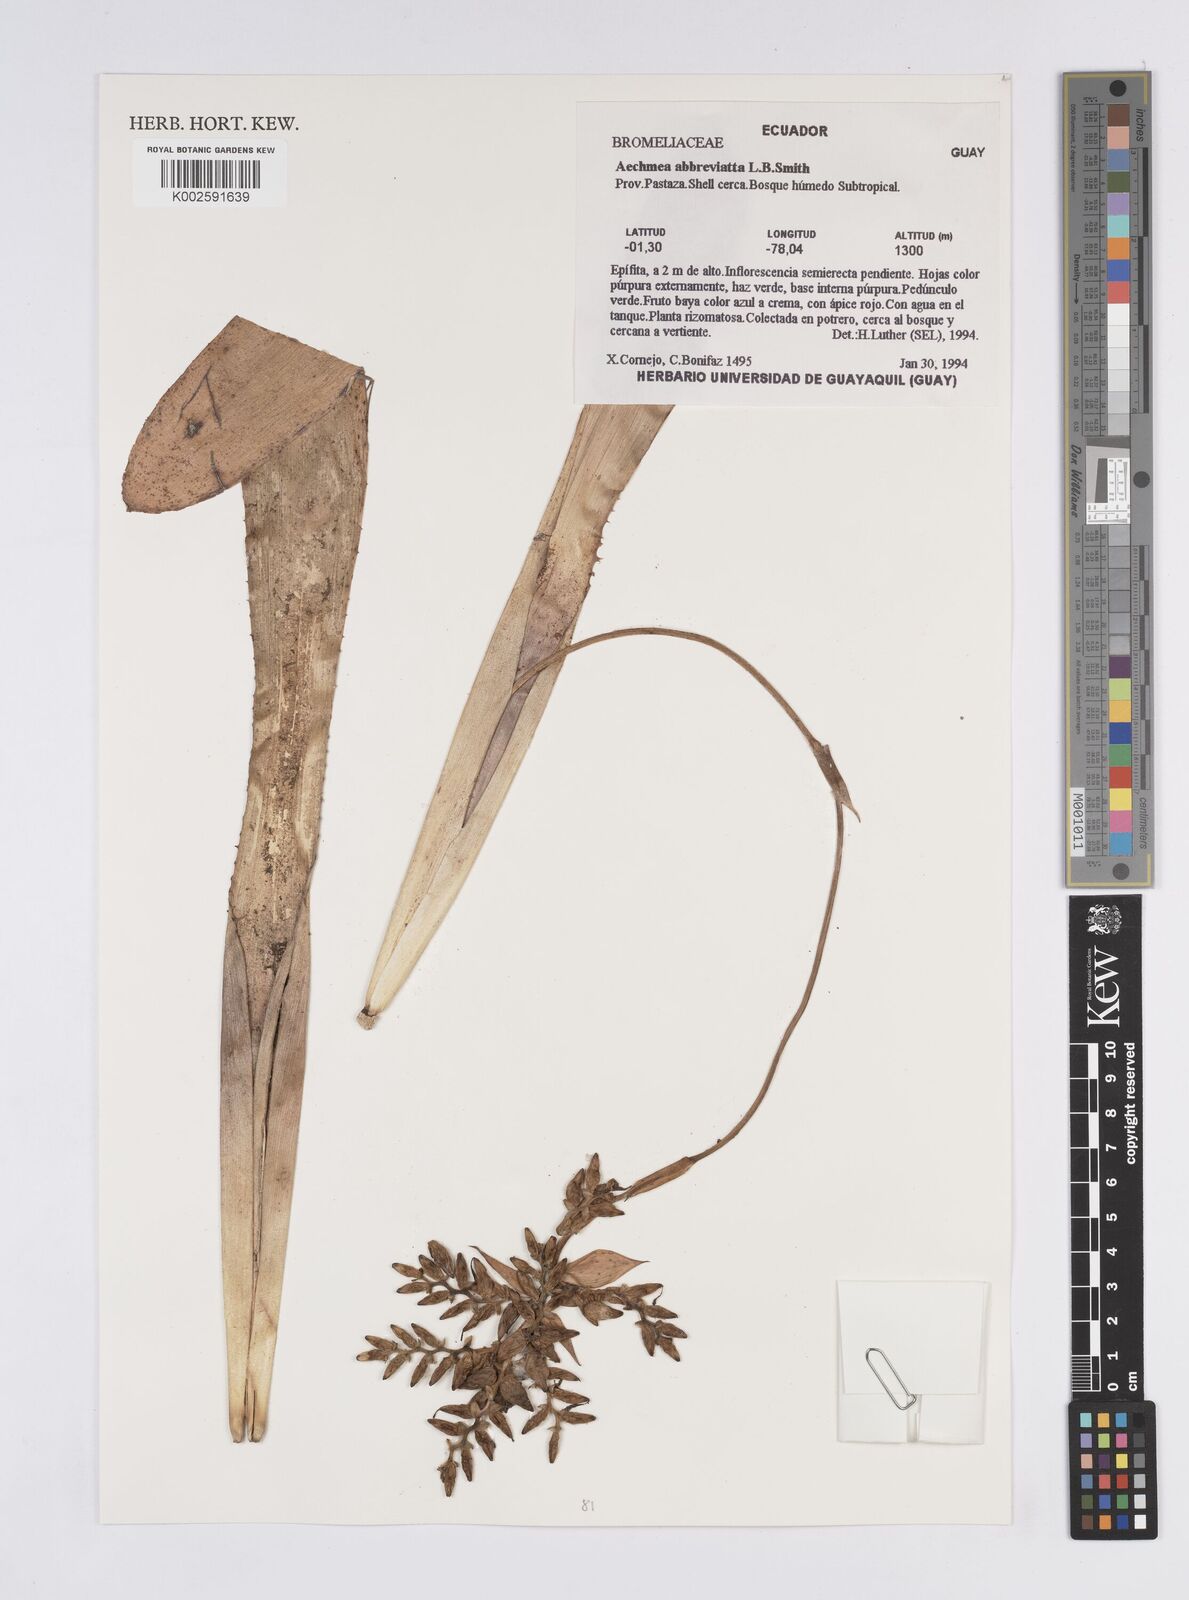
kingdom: Plantae
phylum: Tracheophyta
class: Liliopsida
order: Poales
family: Bromeliaceae
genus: Aechmea
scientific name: Aechmea abbreviata
